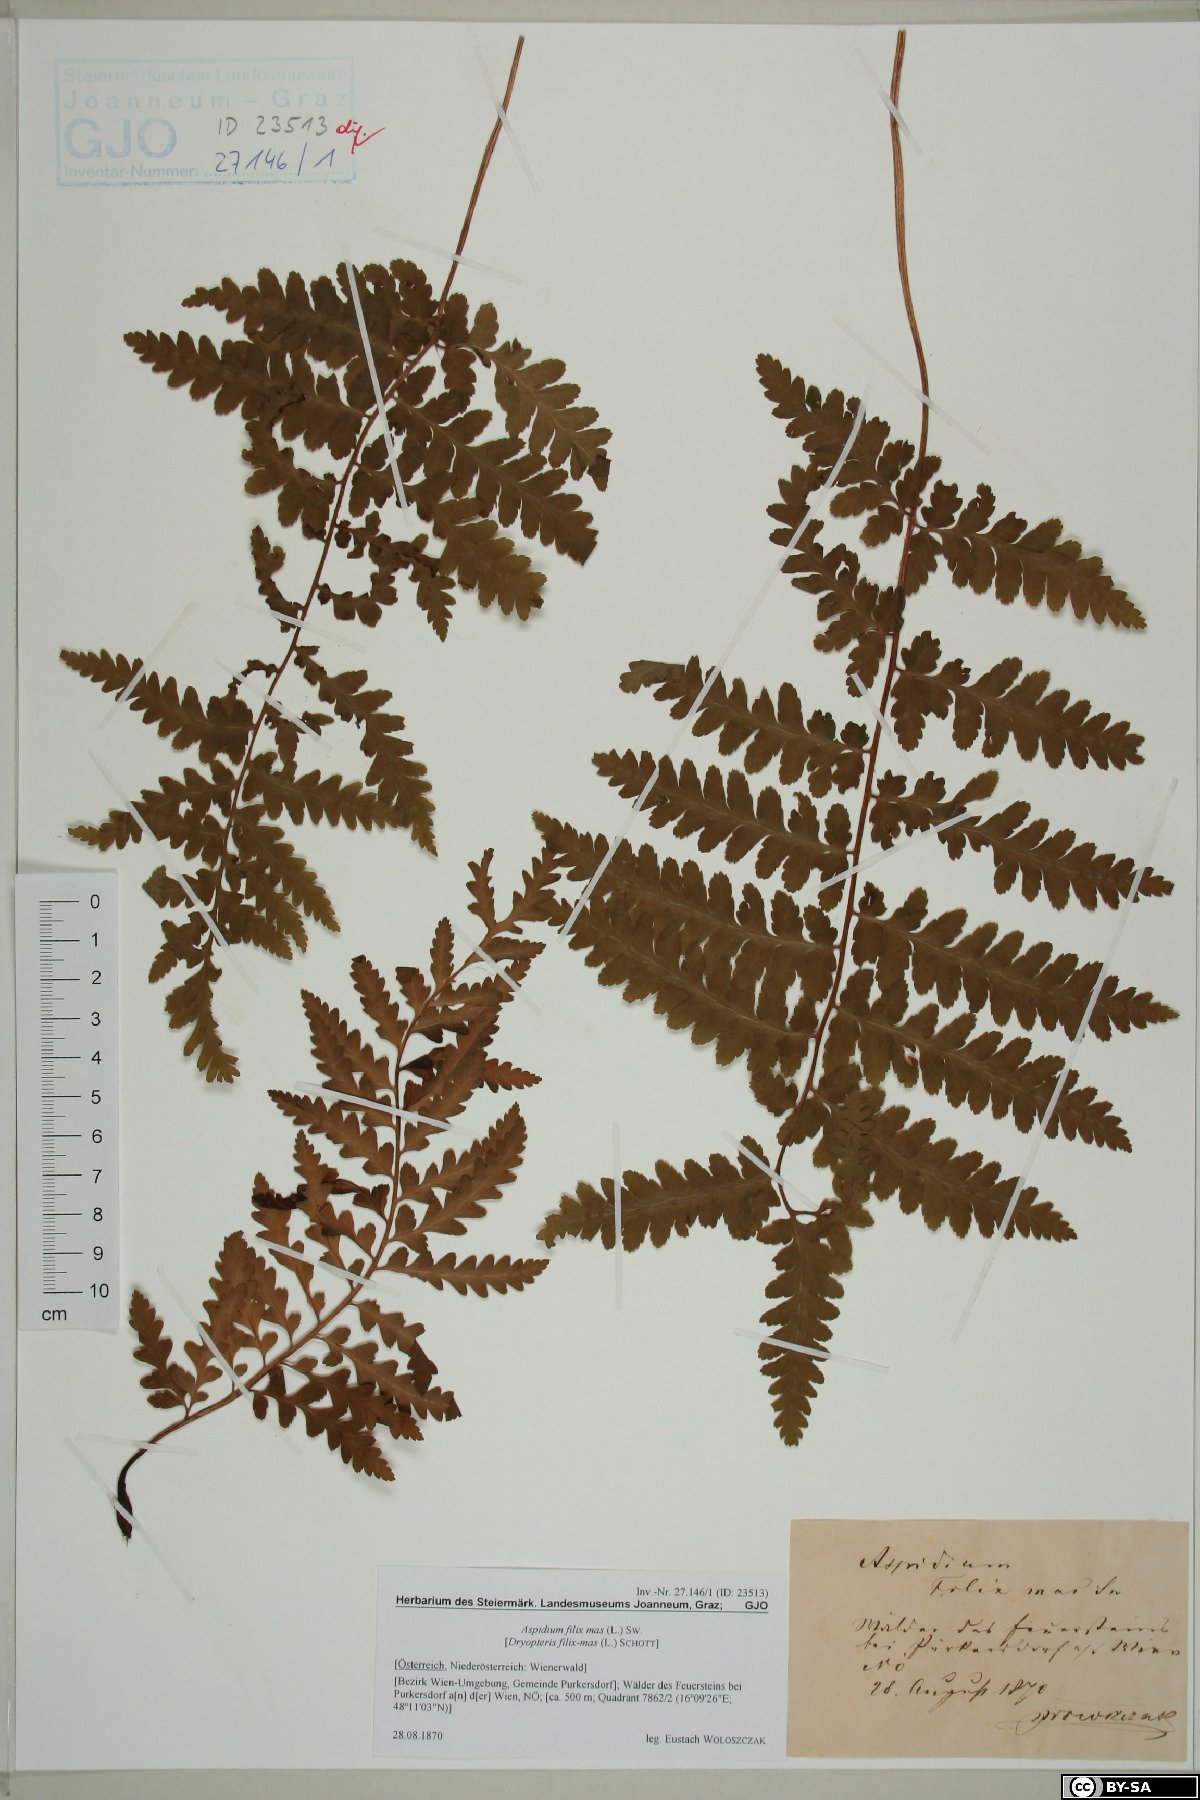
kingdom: Plantae
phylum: Tracheophyta
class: Polypodiopsida
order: Polypodiales
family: Dryopteridaceae
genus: Dryopteris
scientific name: Dryopteris filix-mas
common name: Male fern
